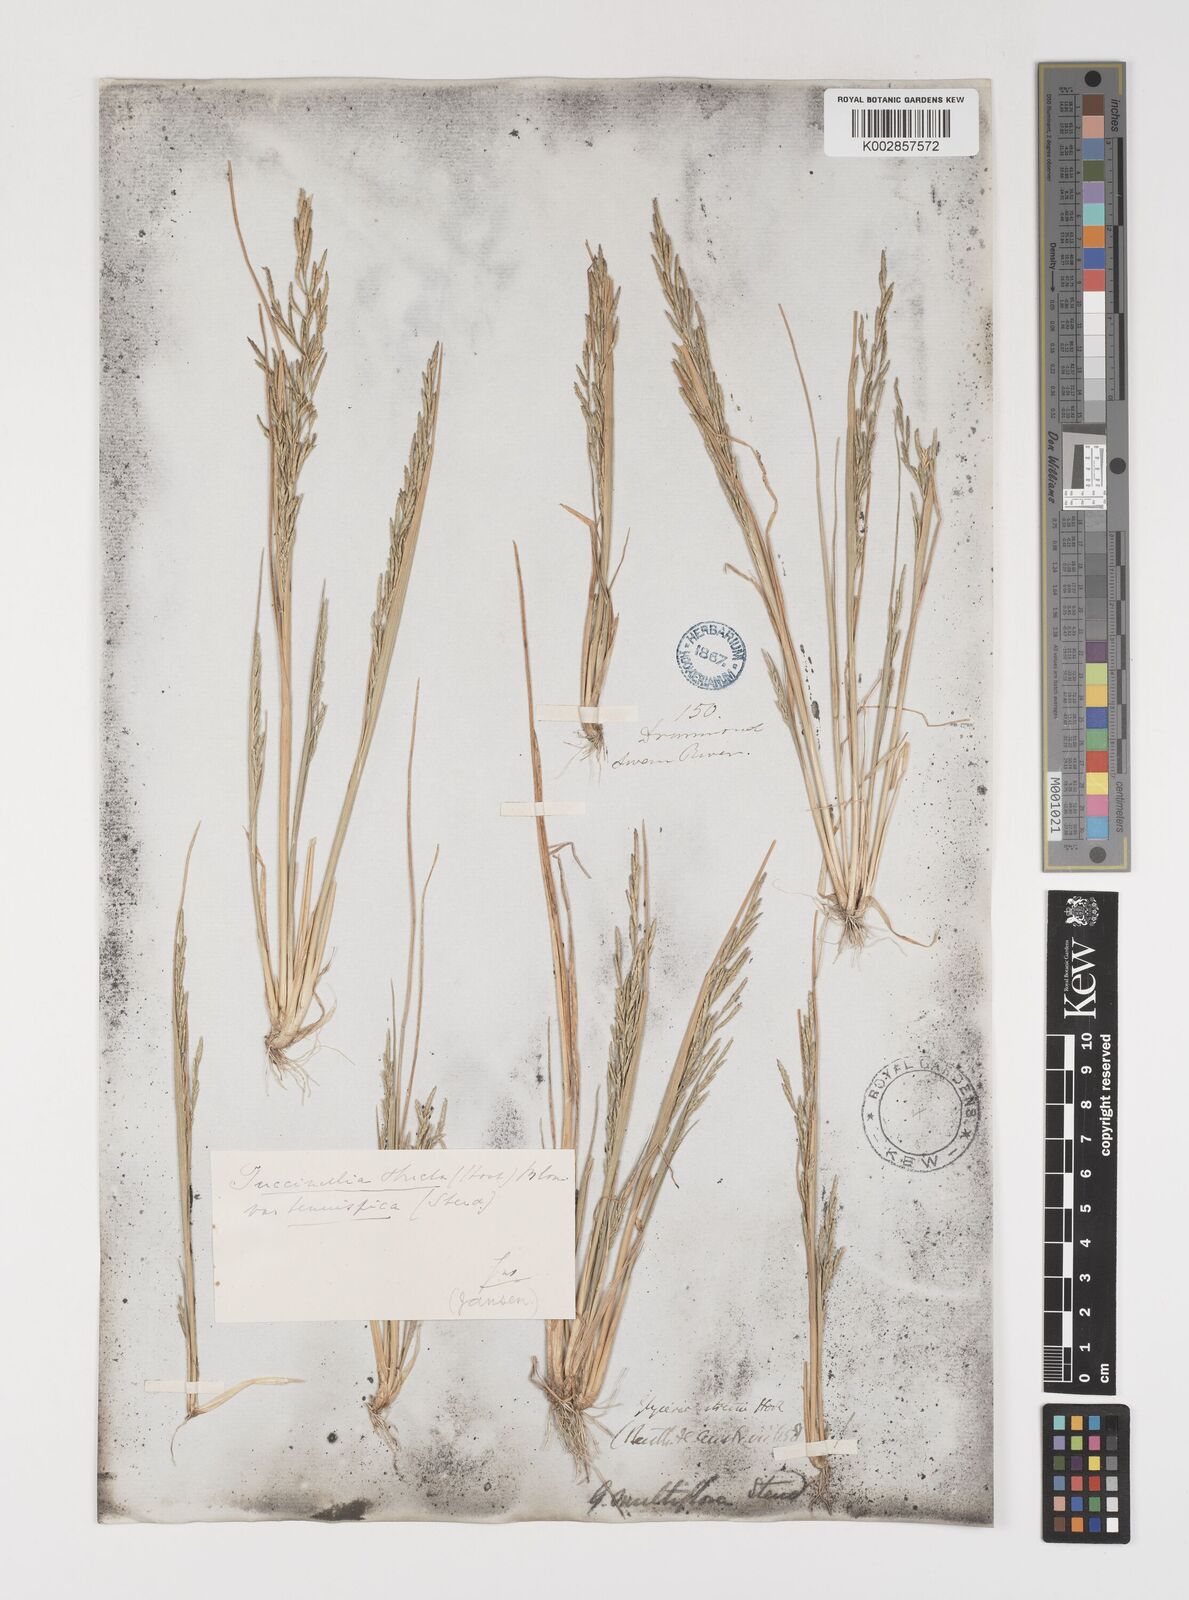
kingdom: Plantae
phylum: Tracheophyta
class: Liliopsida
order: Poales
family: Poaceae
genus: Puccinellia
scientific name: Puccinellia stricta
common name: Australian saltmarsh grass
